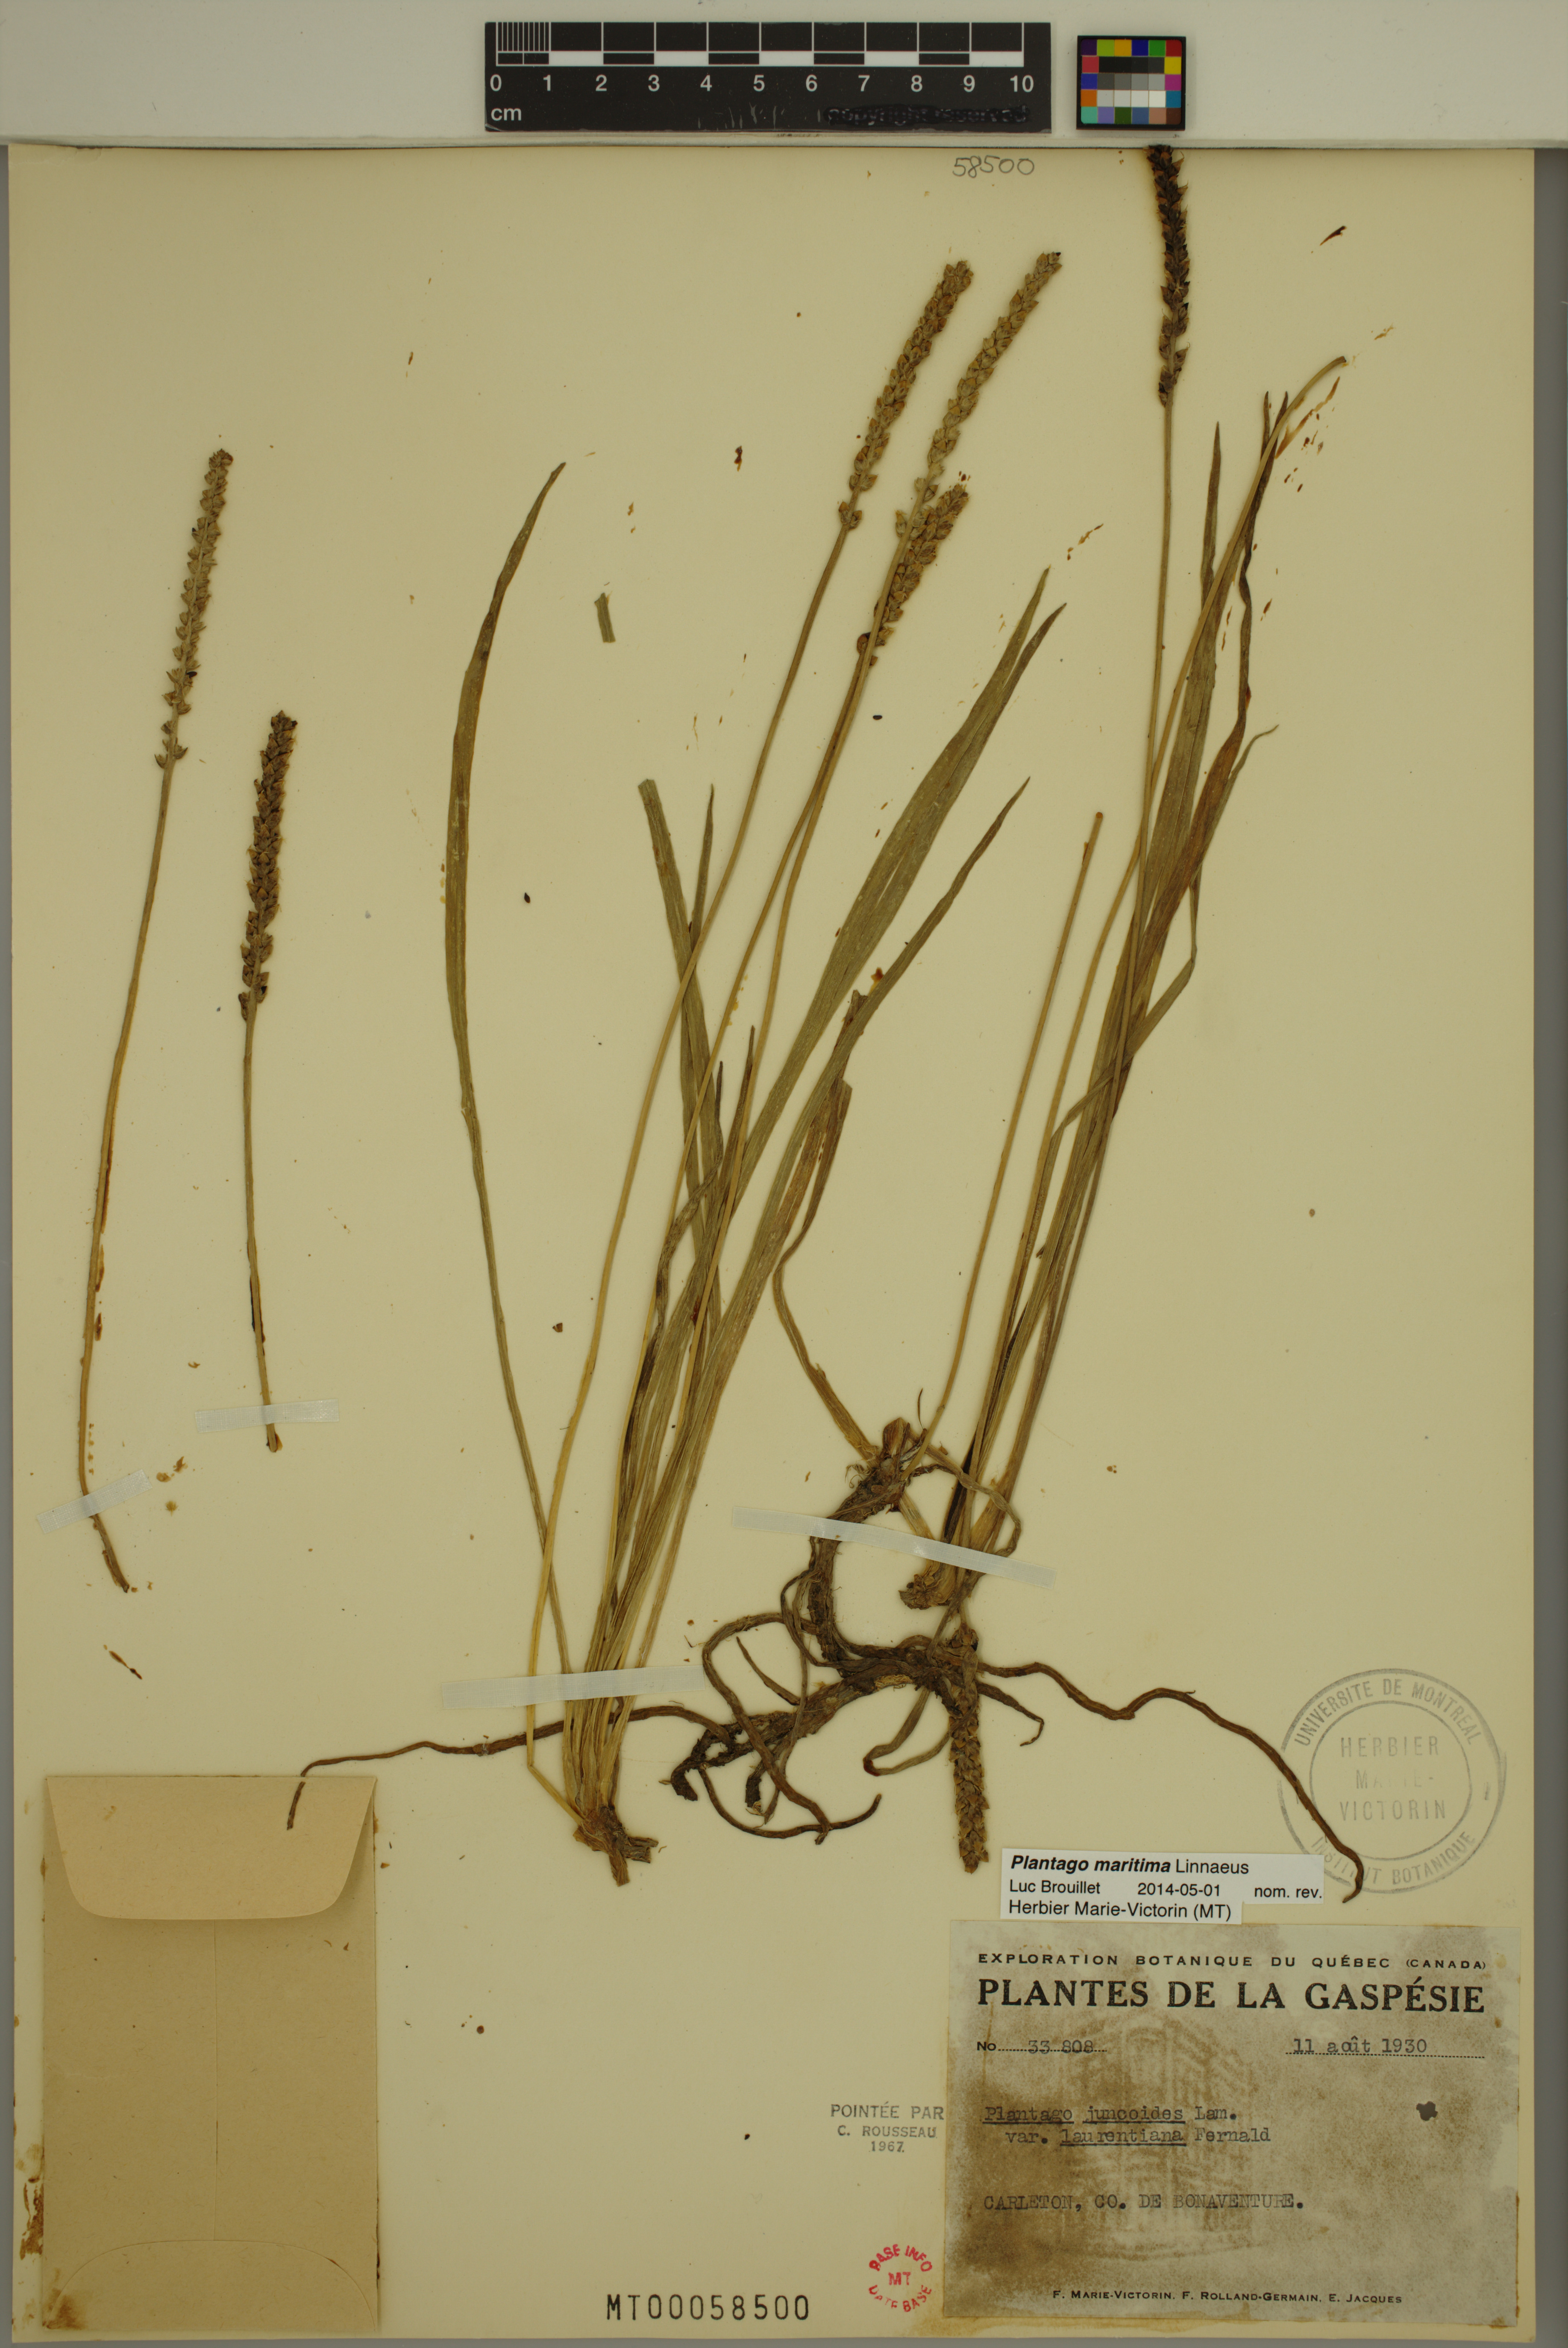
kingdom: Plantae
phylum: Tracheophyta
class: Magnoliopsida
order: Lamiales
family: Plantaginaceae
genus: Plantago
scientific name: Plantago maritima
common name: Sea plantain
